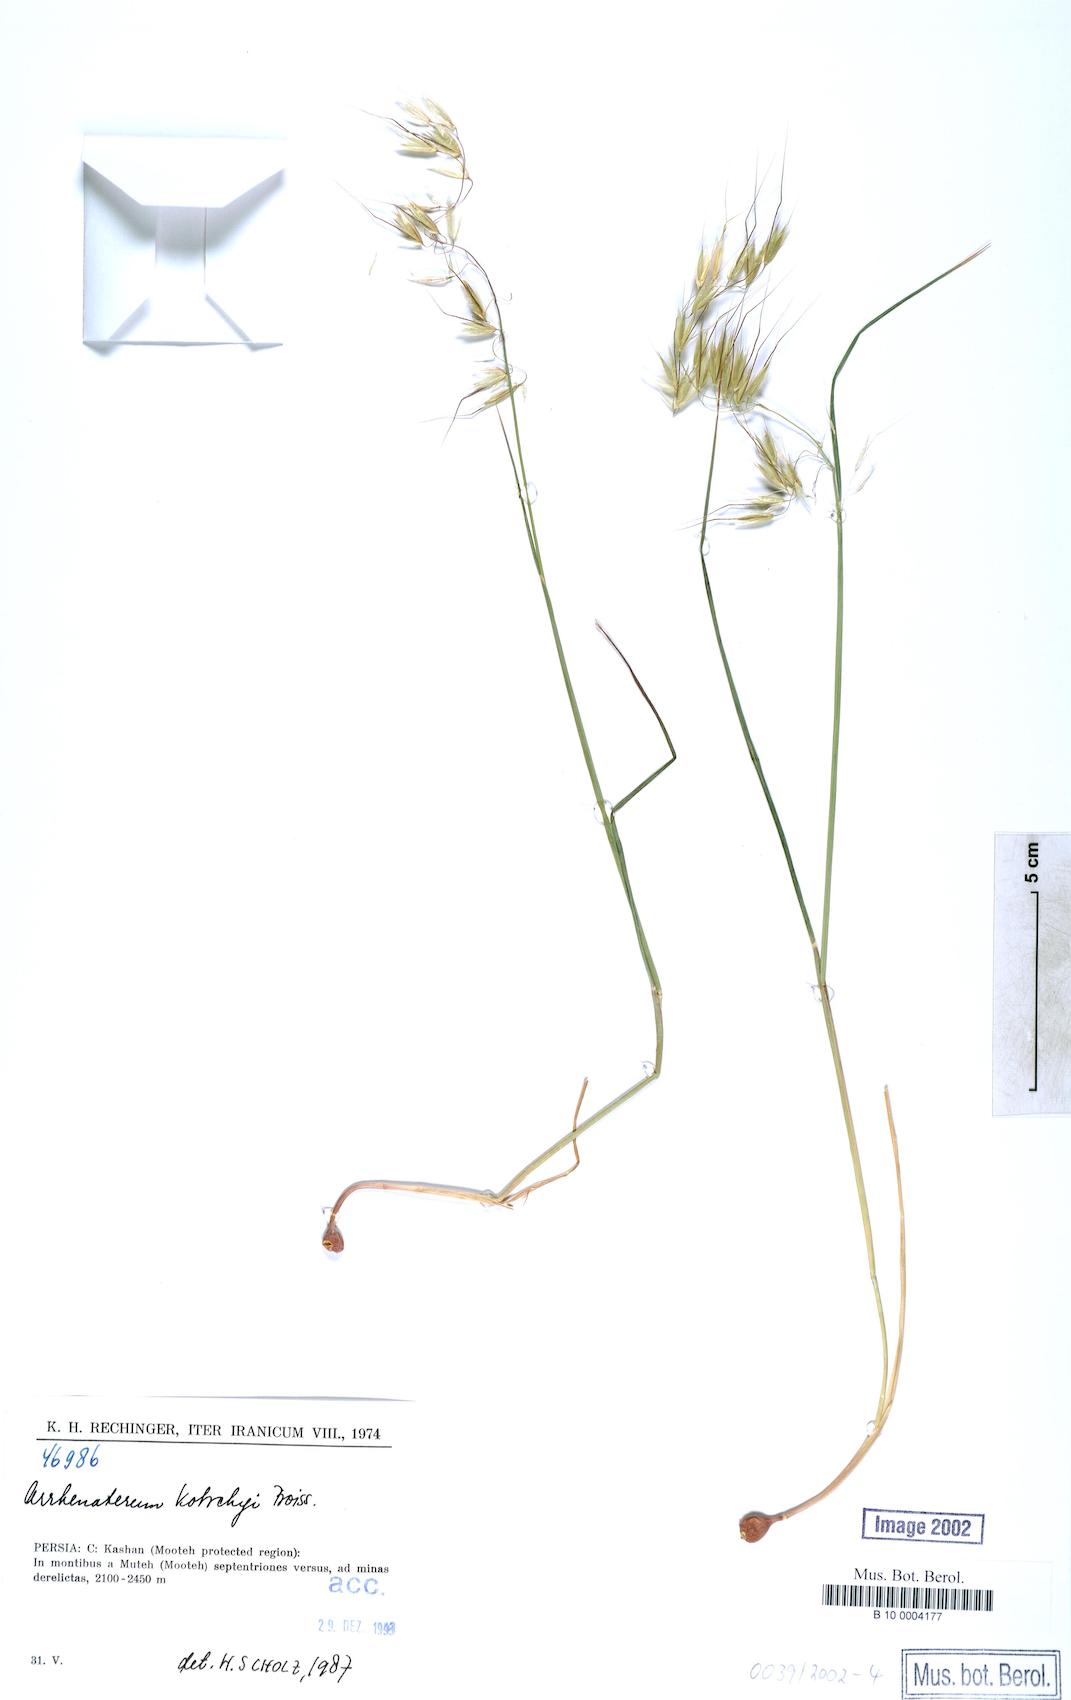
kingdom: Plantae
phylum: Tracheophyta
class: Liliopsida
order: Poales
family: Poaceae
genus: Arrhenatherum
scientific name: Arrhenatherum kotschyi
